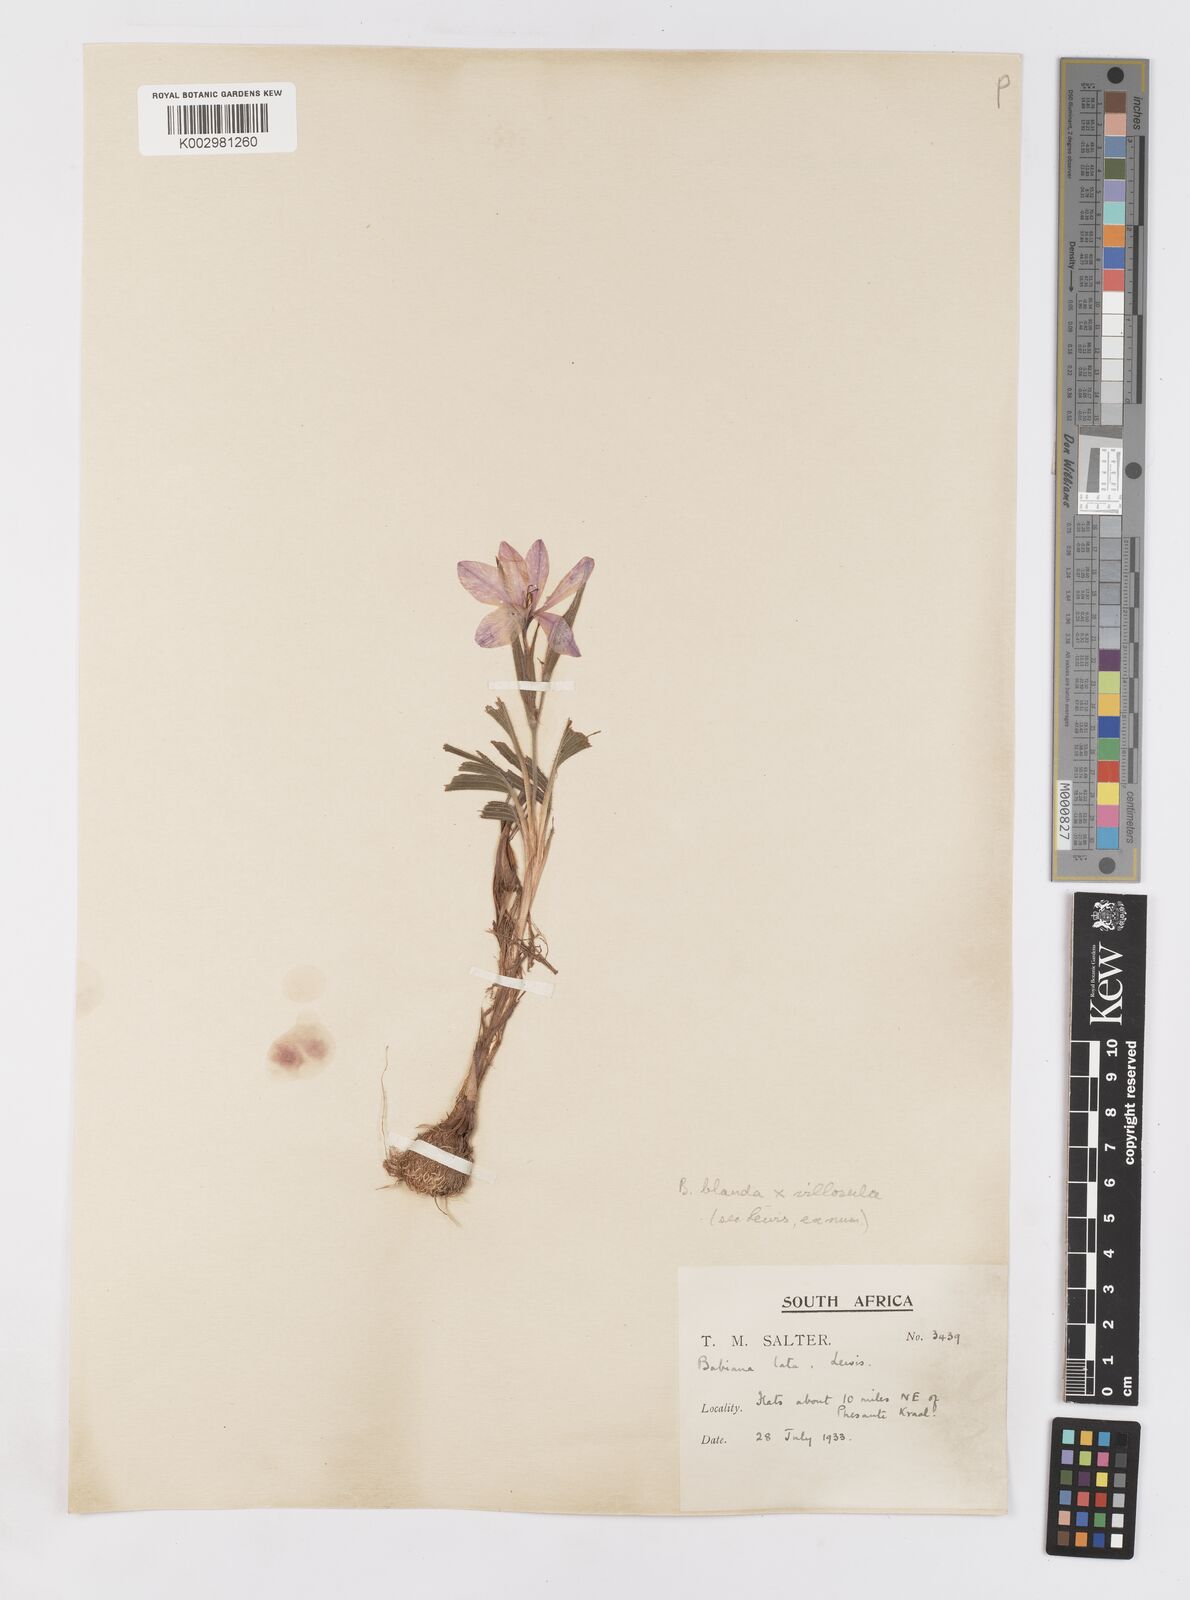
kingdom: Plantae
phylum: Tracheophyta
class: Liliopsida
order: Asparagales
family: Iridaceae
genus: Babiana
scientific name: Babiana blanda
